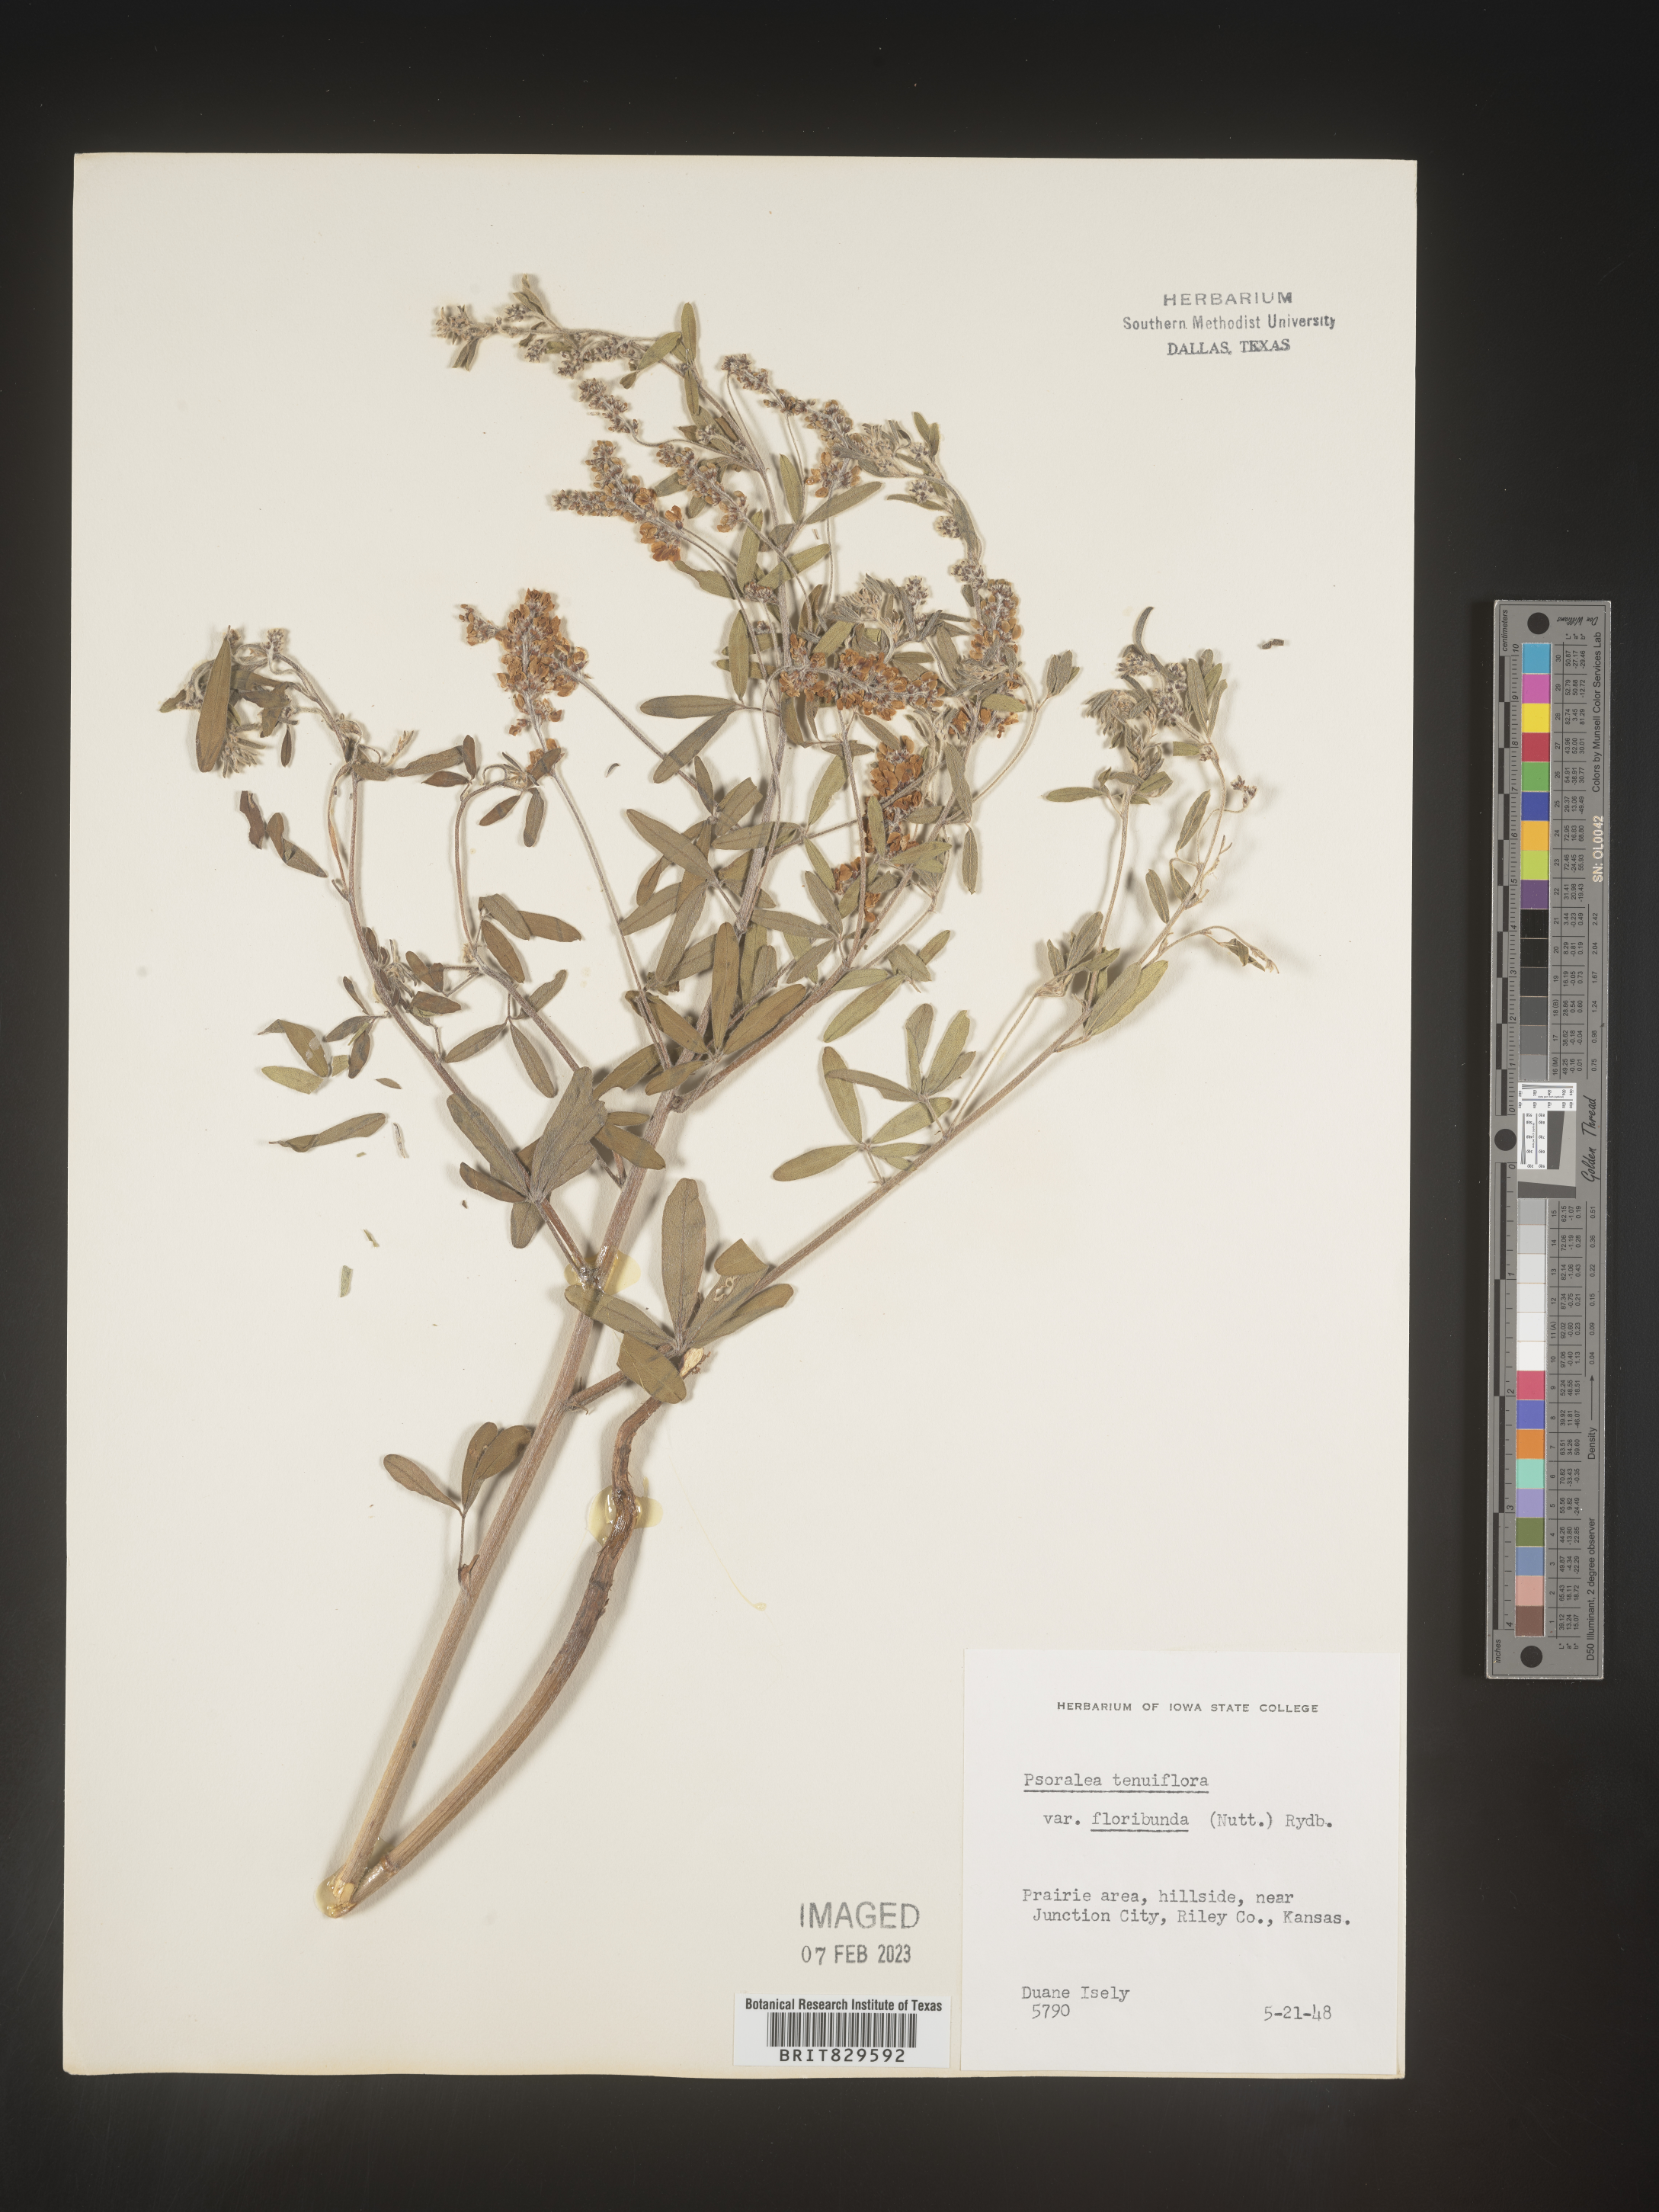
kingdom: Plantae
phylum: Tracheophyta
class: Magnoliopsida
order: Fabales
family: Fabaceae
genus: Pediomelum
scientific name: Pediomelum tenuiflorum
